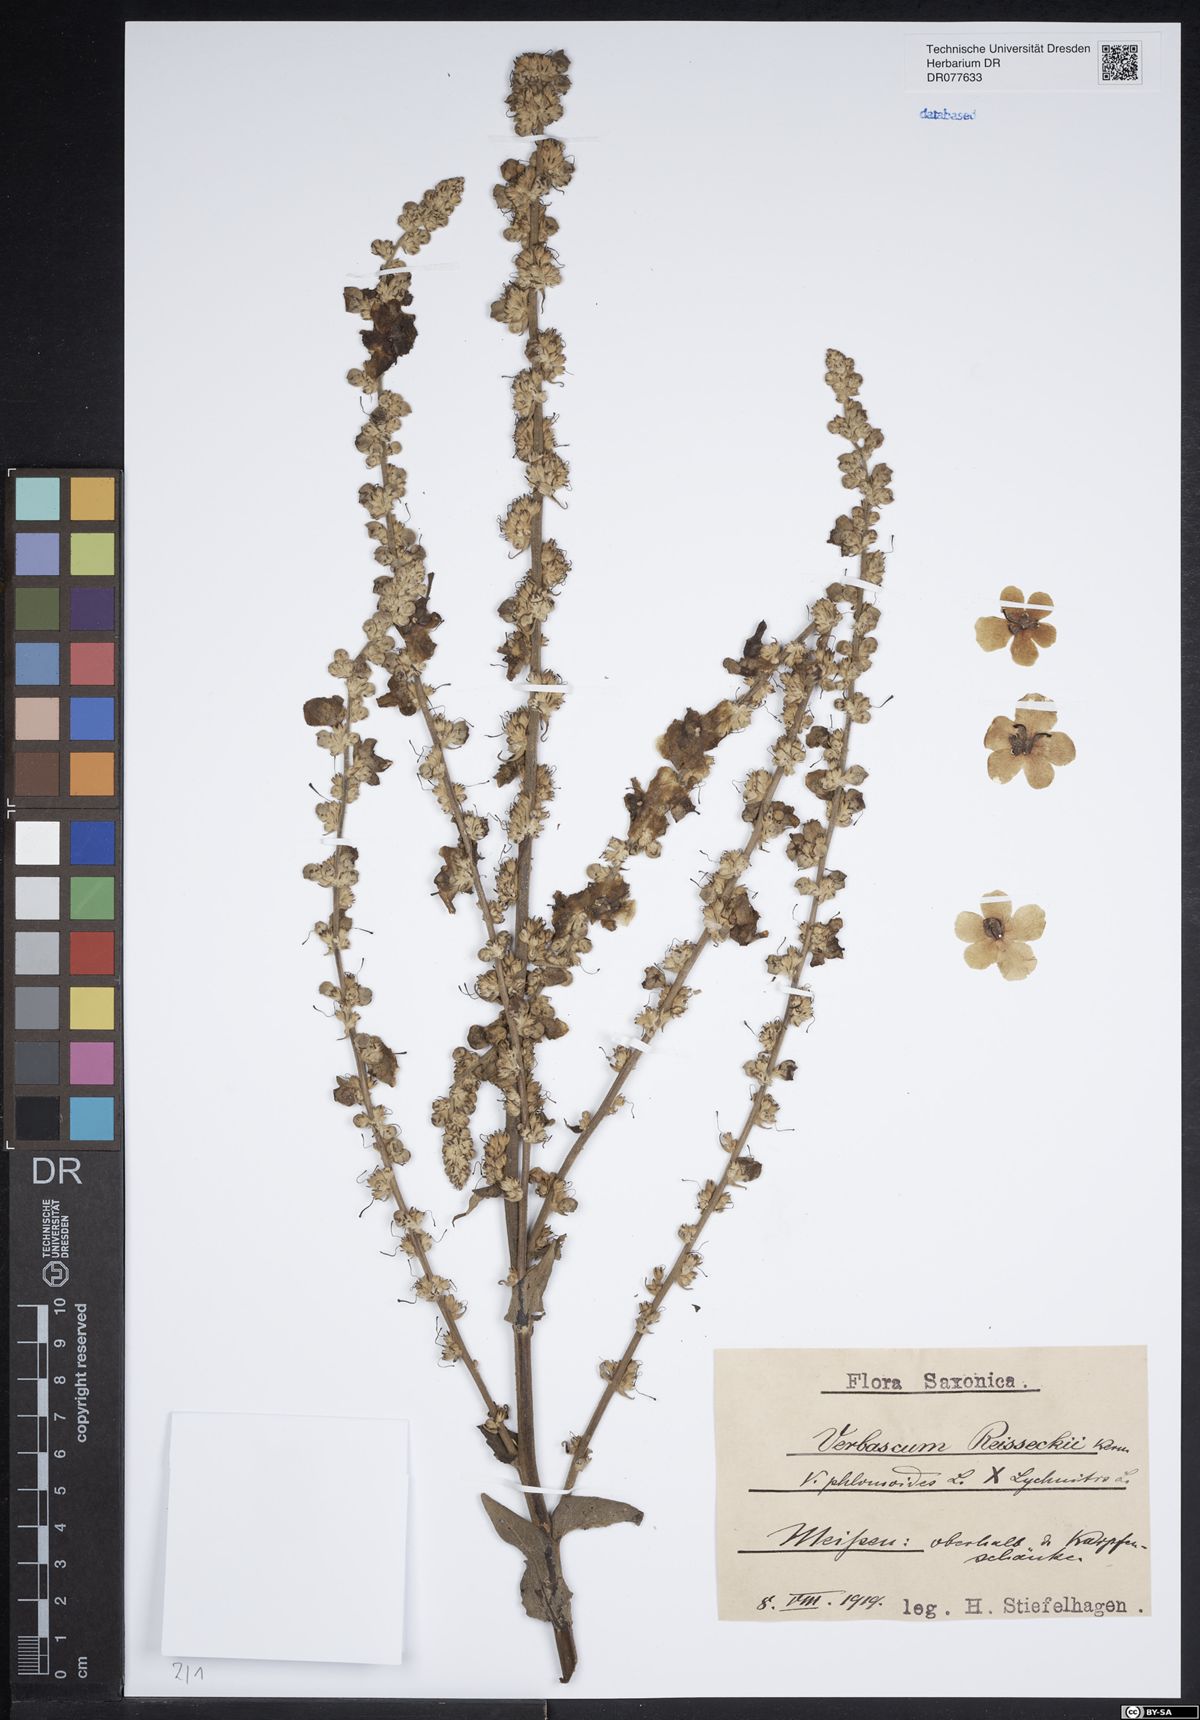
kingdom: Plantae
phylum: Tracheophyta
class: Magnoliopsida
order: Lamiales
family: Scrophulariaceae
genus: Verbascum
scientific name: Verbascum denudatum
